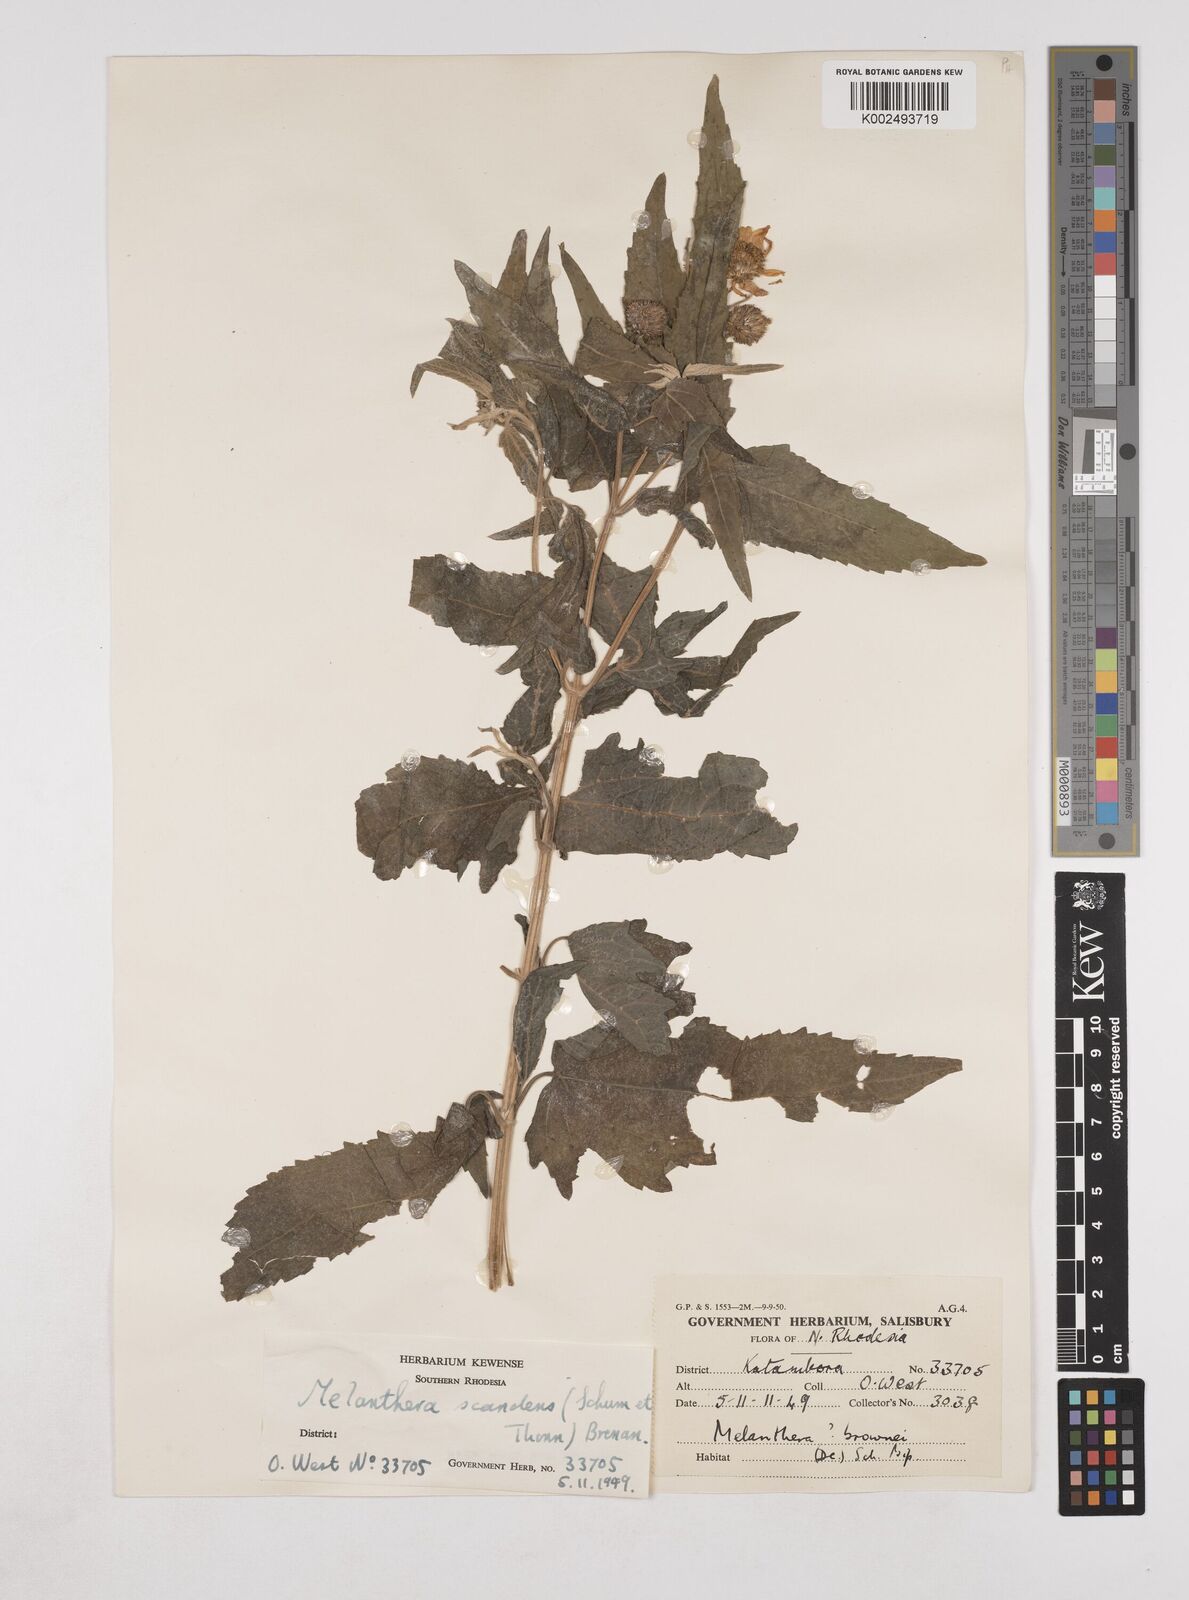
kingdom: Plantae
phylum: Tracheophyta
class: Magnoliopsida
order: Asterales
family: Asteraceae
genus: Lipotriche
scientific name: Lipotriche scandens
